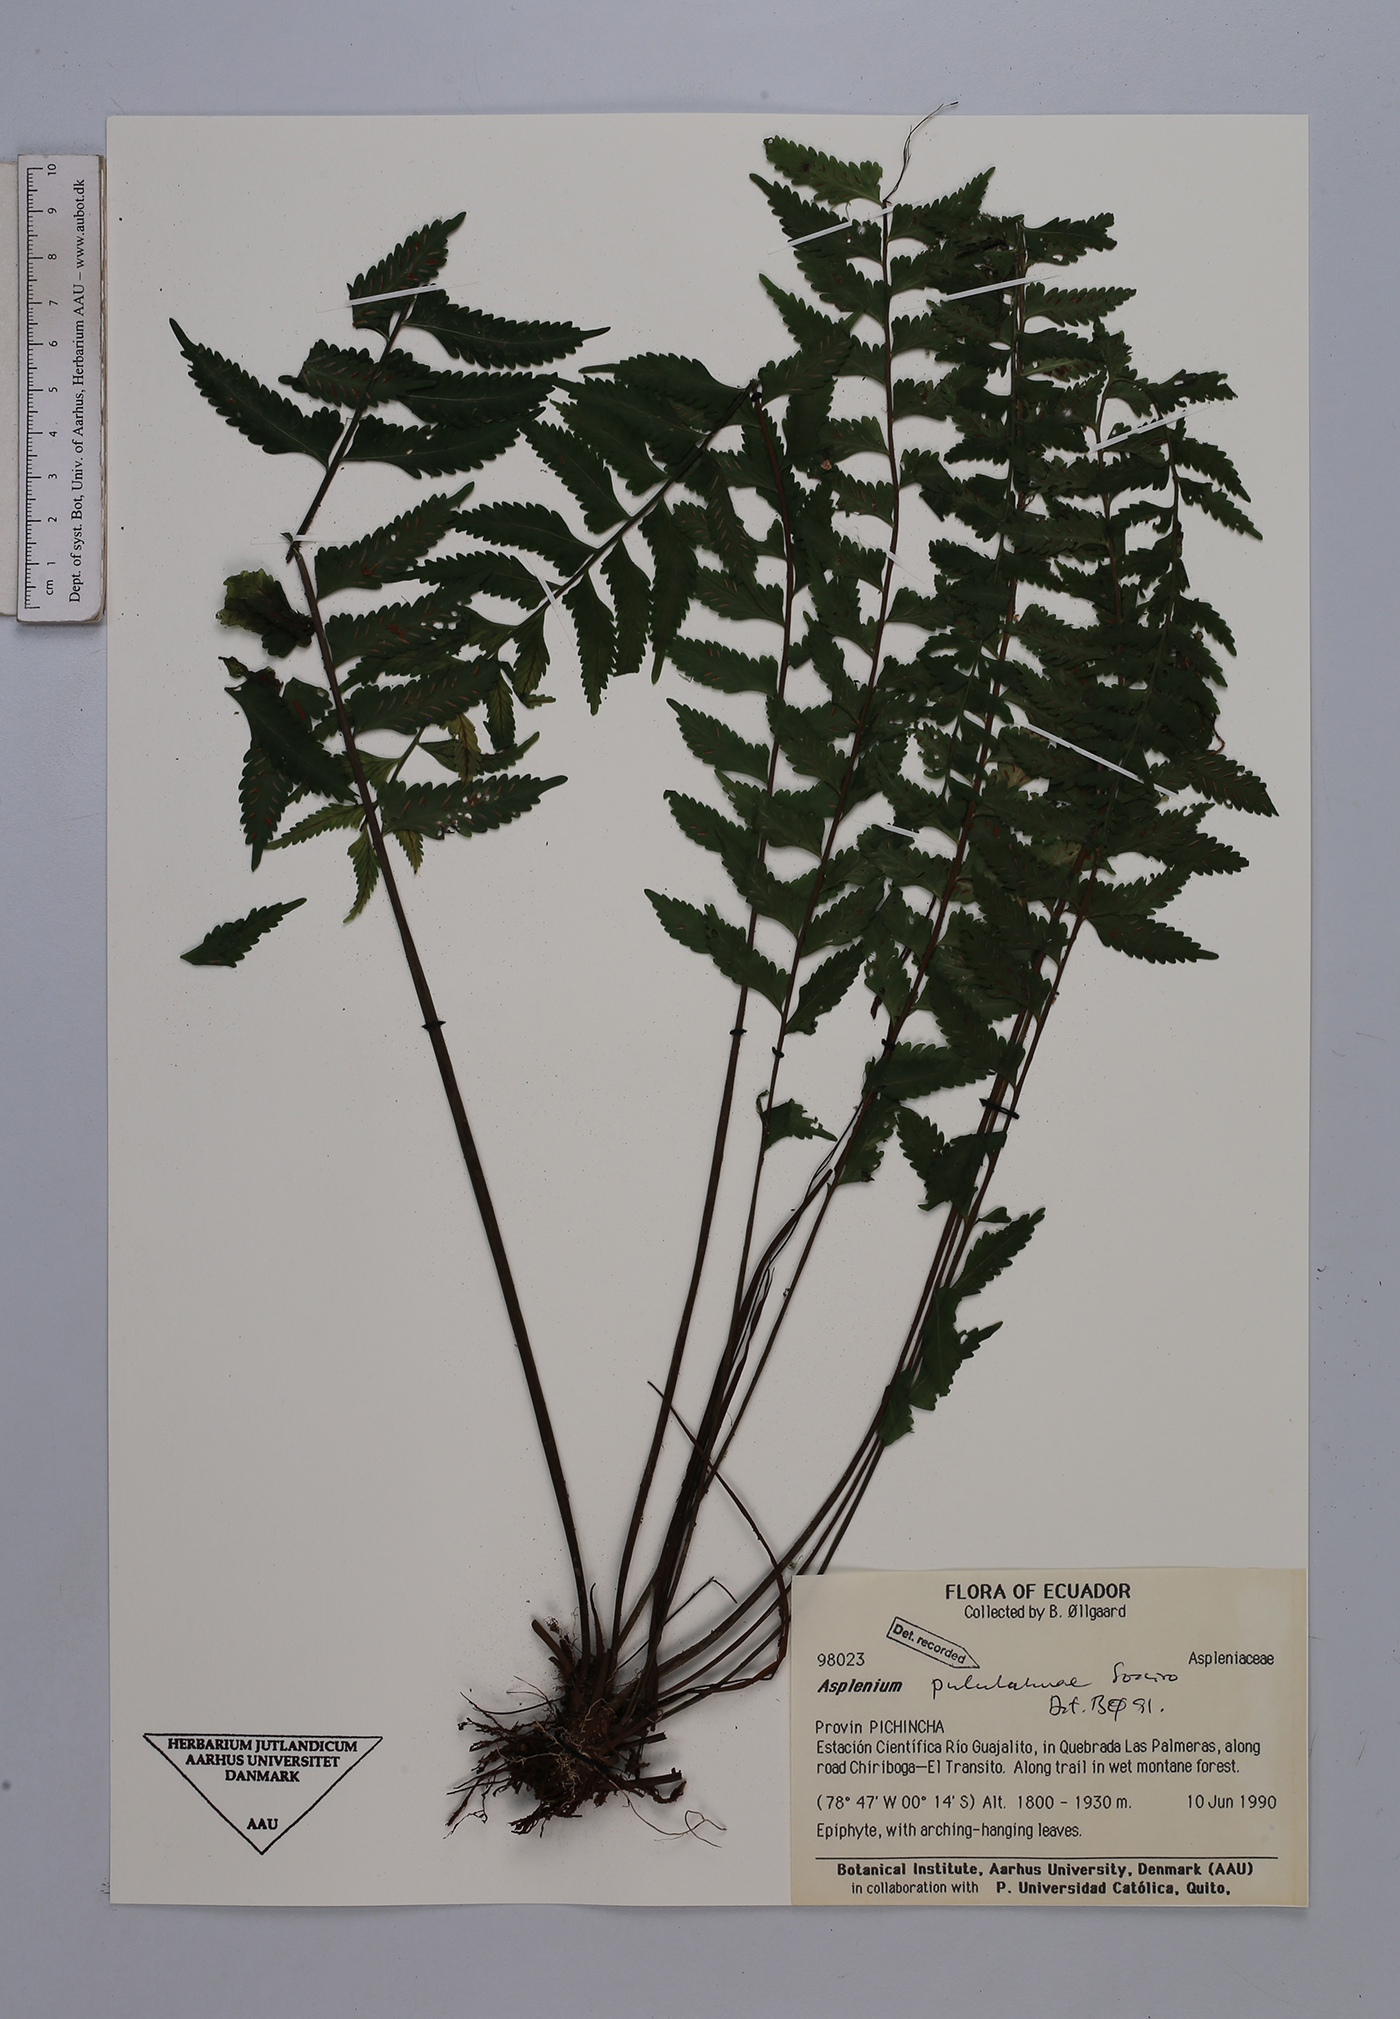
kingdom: Plantae
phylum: Tracheophyta
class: Polypodiopsida
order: Polypodiales
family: Aspleniaceae
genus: Asplenium
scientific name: Asplenium pululahuae
